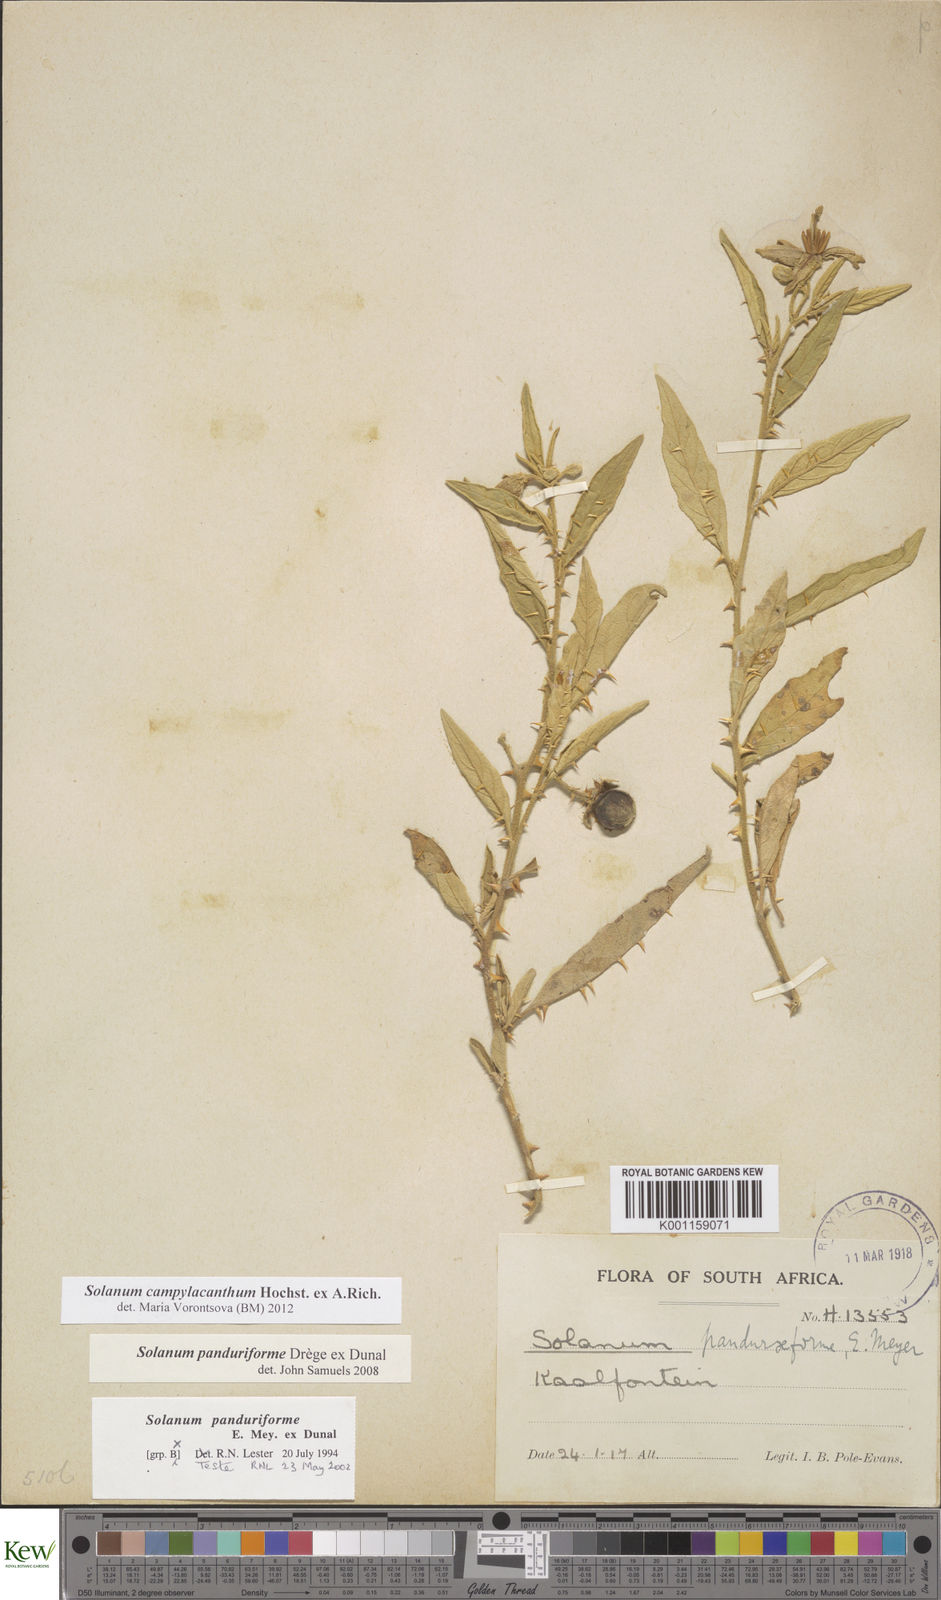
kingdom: Plantae
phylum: Tracheophyta
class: Magnoliopsida
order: Solanales
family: Solanaceae
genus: Solanum
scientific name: Solanum campylacanthum
